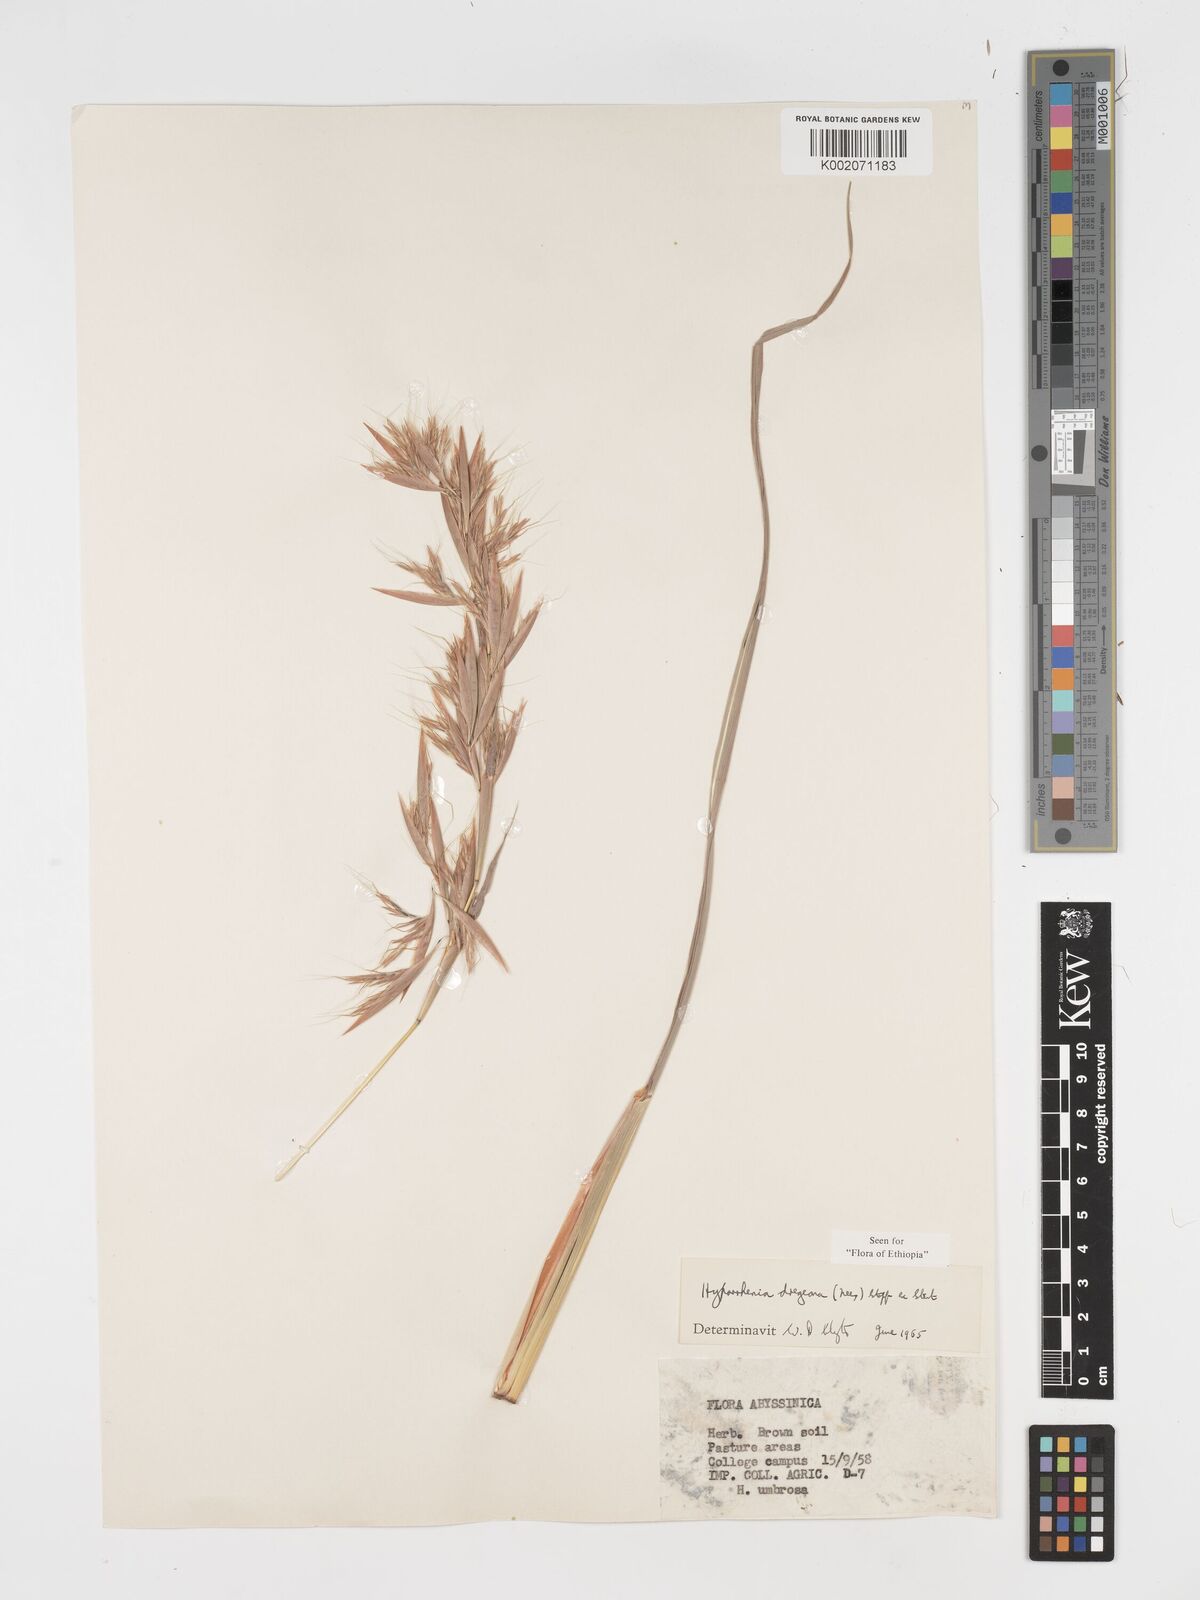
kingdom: Plantae
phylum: Tracheophyta
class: Liliopsida
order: Poales
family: Poaceae
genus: Hyparrhenia
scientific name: Hyparrhenia dregeana
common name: Silky thatching grass
